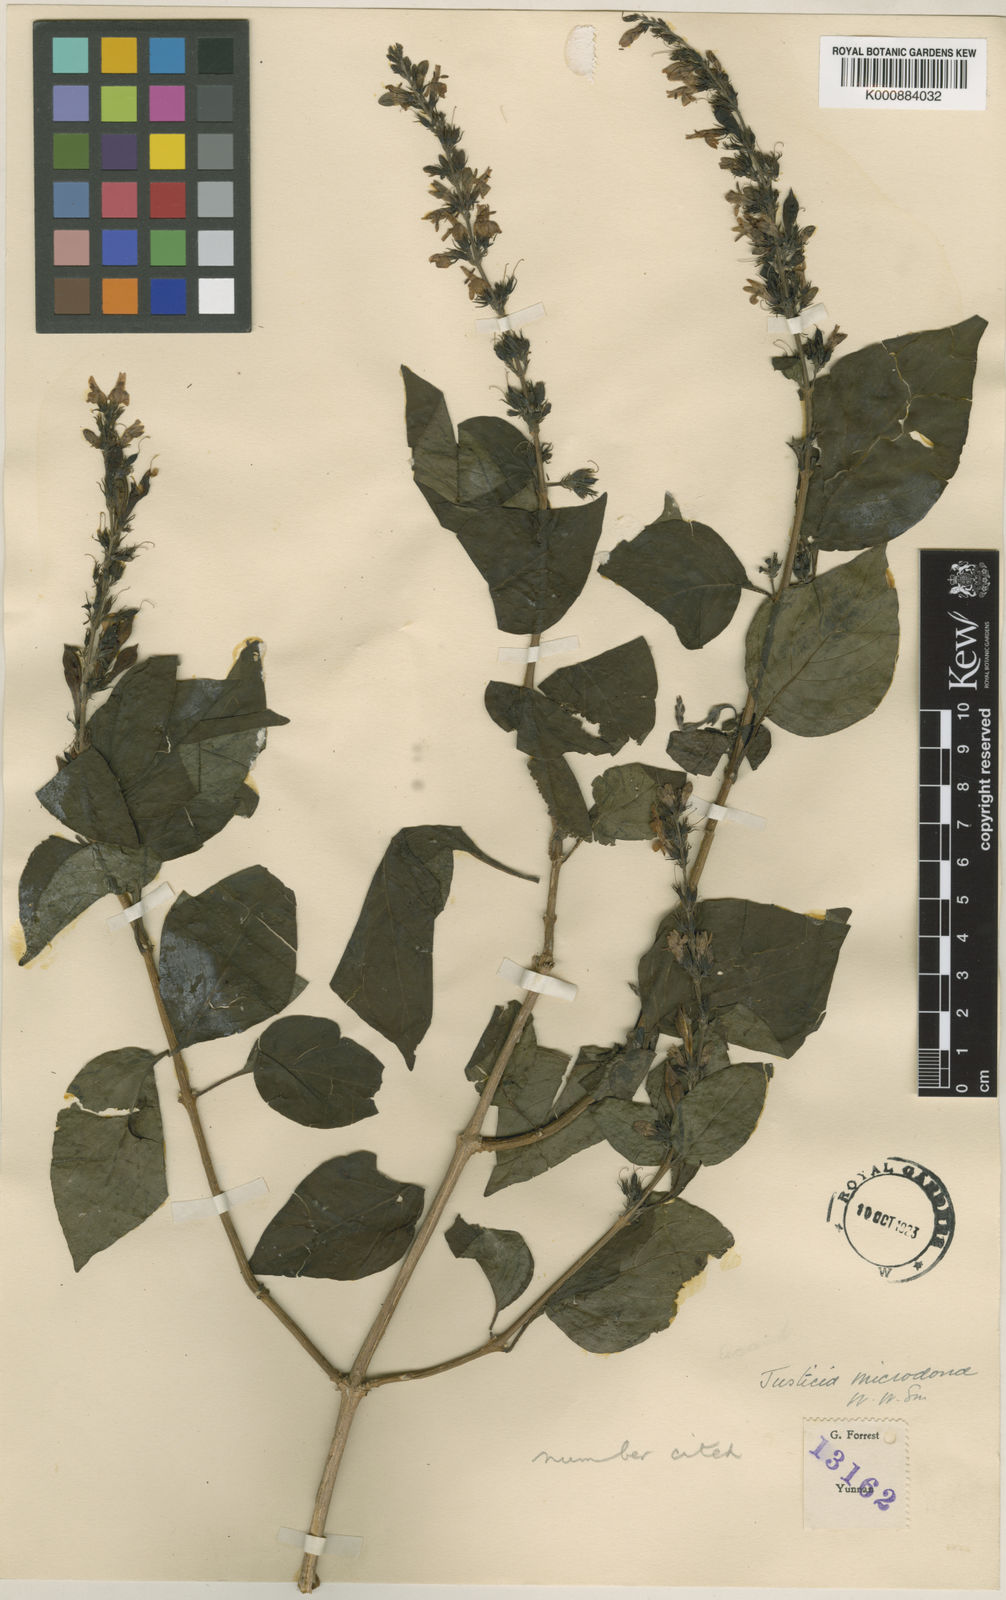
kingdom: Plantae
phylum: Tracheophyta
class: Magnoliopsida
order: Lamiales
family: Acanthaceae
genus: Wuacanthus
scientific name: Wuacanthus microdontus
